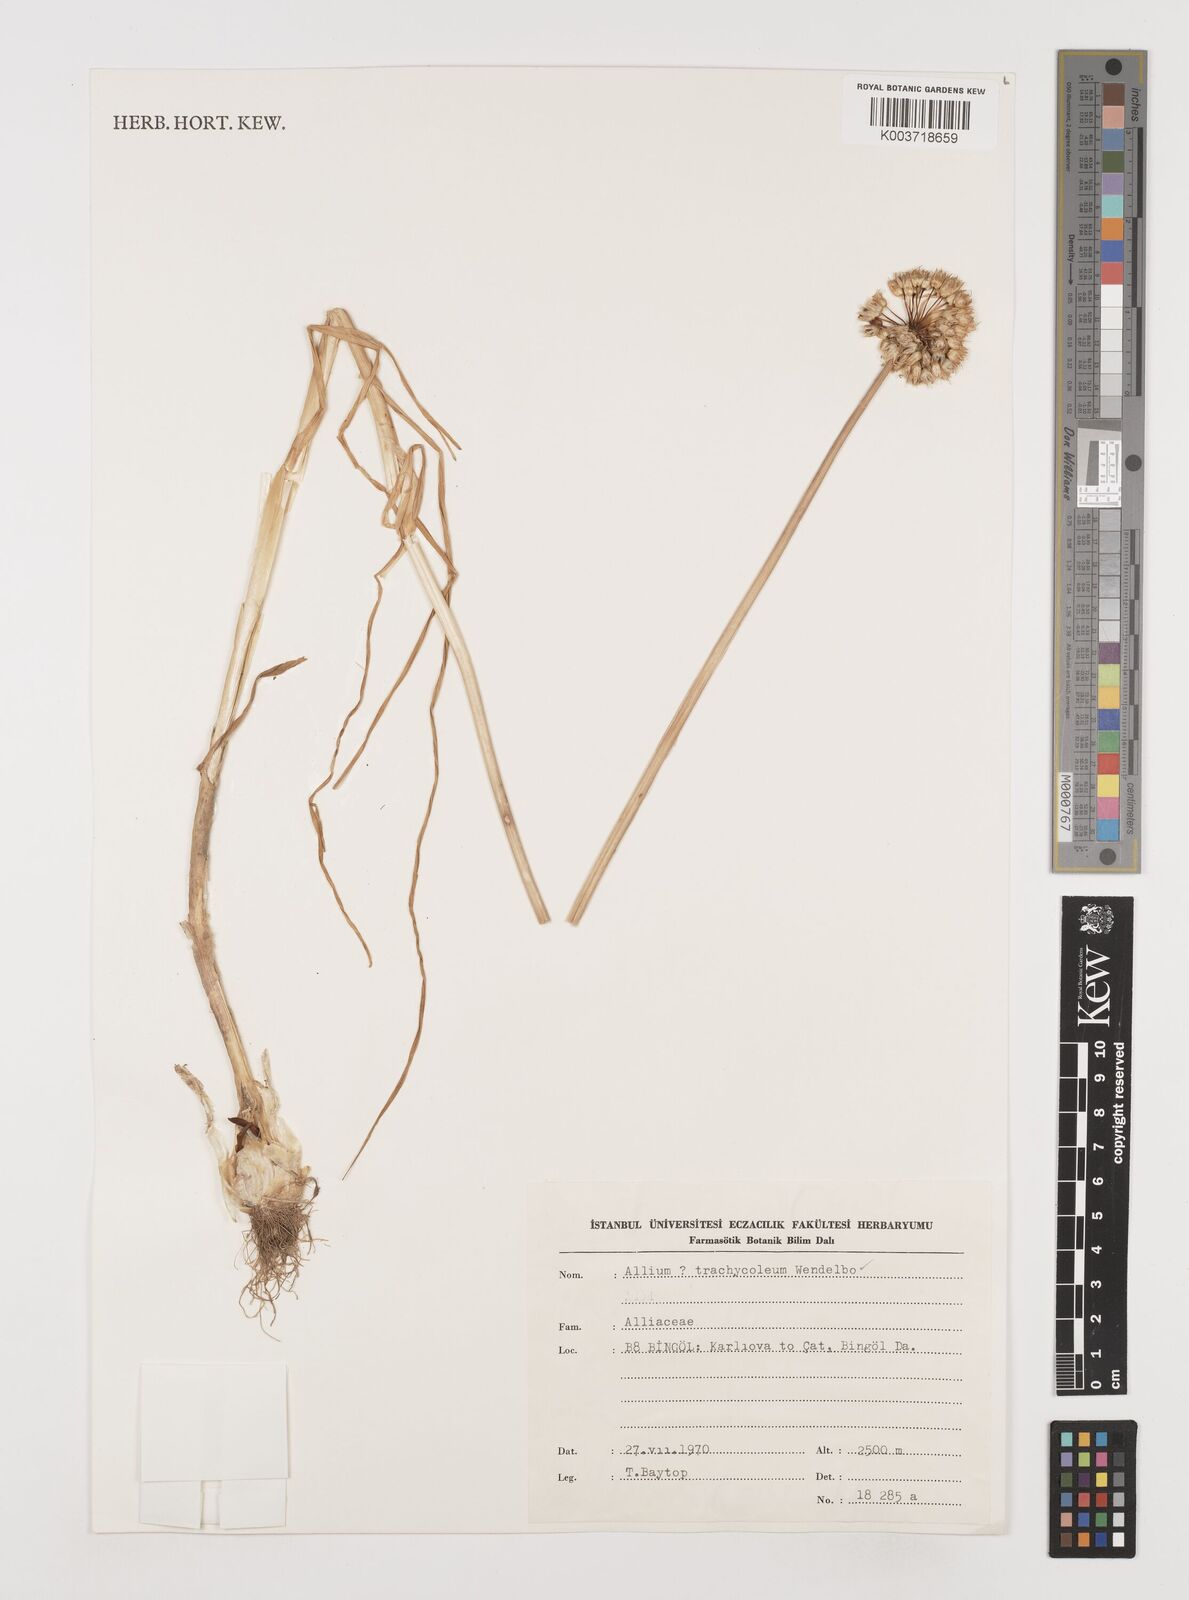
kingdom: Plantae
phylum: Tracheophyta
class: Liliopsida
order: Asparagales
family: Amaryllidaceae
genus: Allium
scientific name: Allium trachycoleum
